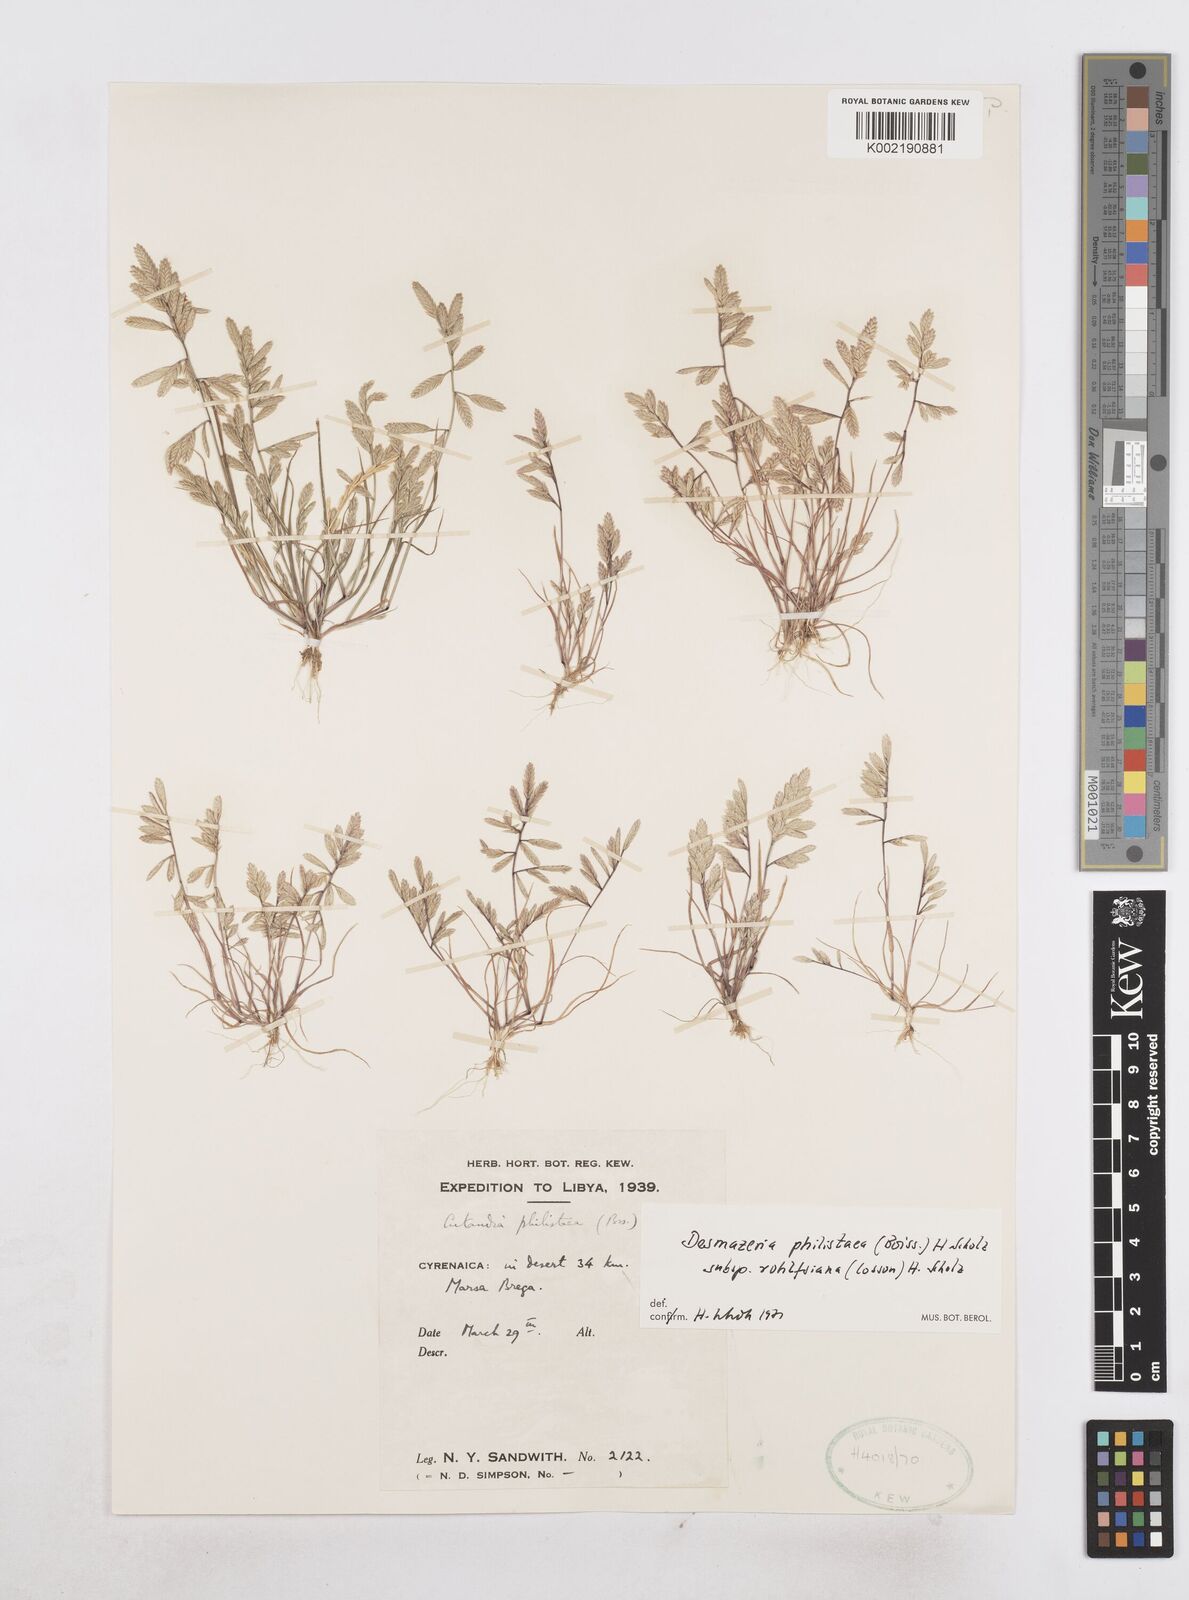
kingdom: Plantae
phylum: Tracheophyta
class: Liliopsida
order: Poales
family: Poaceae
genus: Desmazeria
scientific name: Desmazeria philistaea
